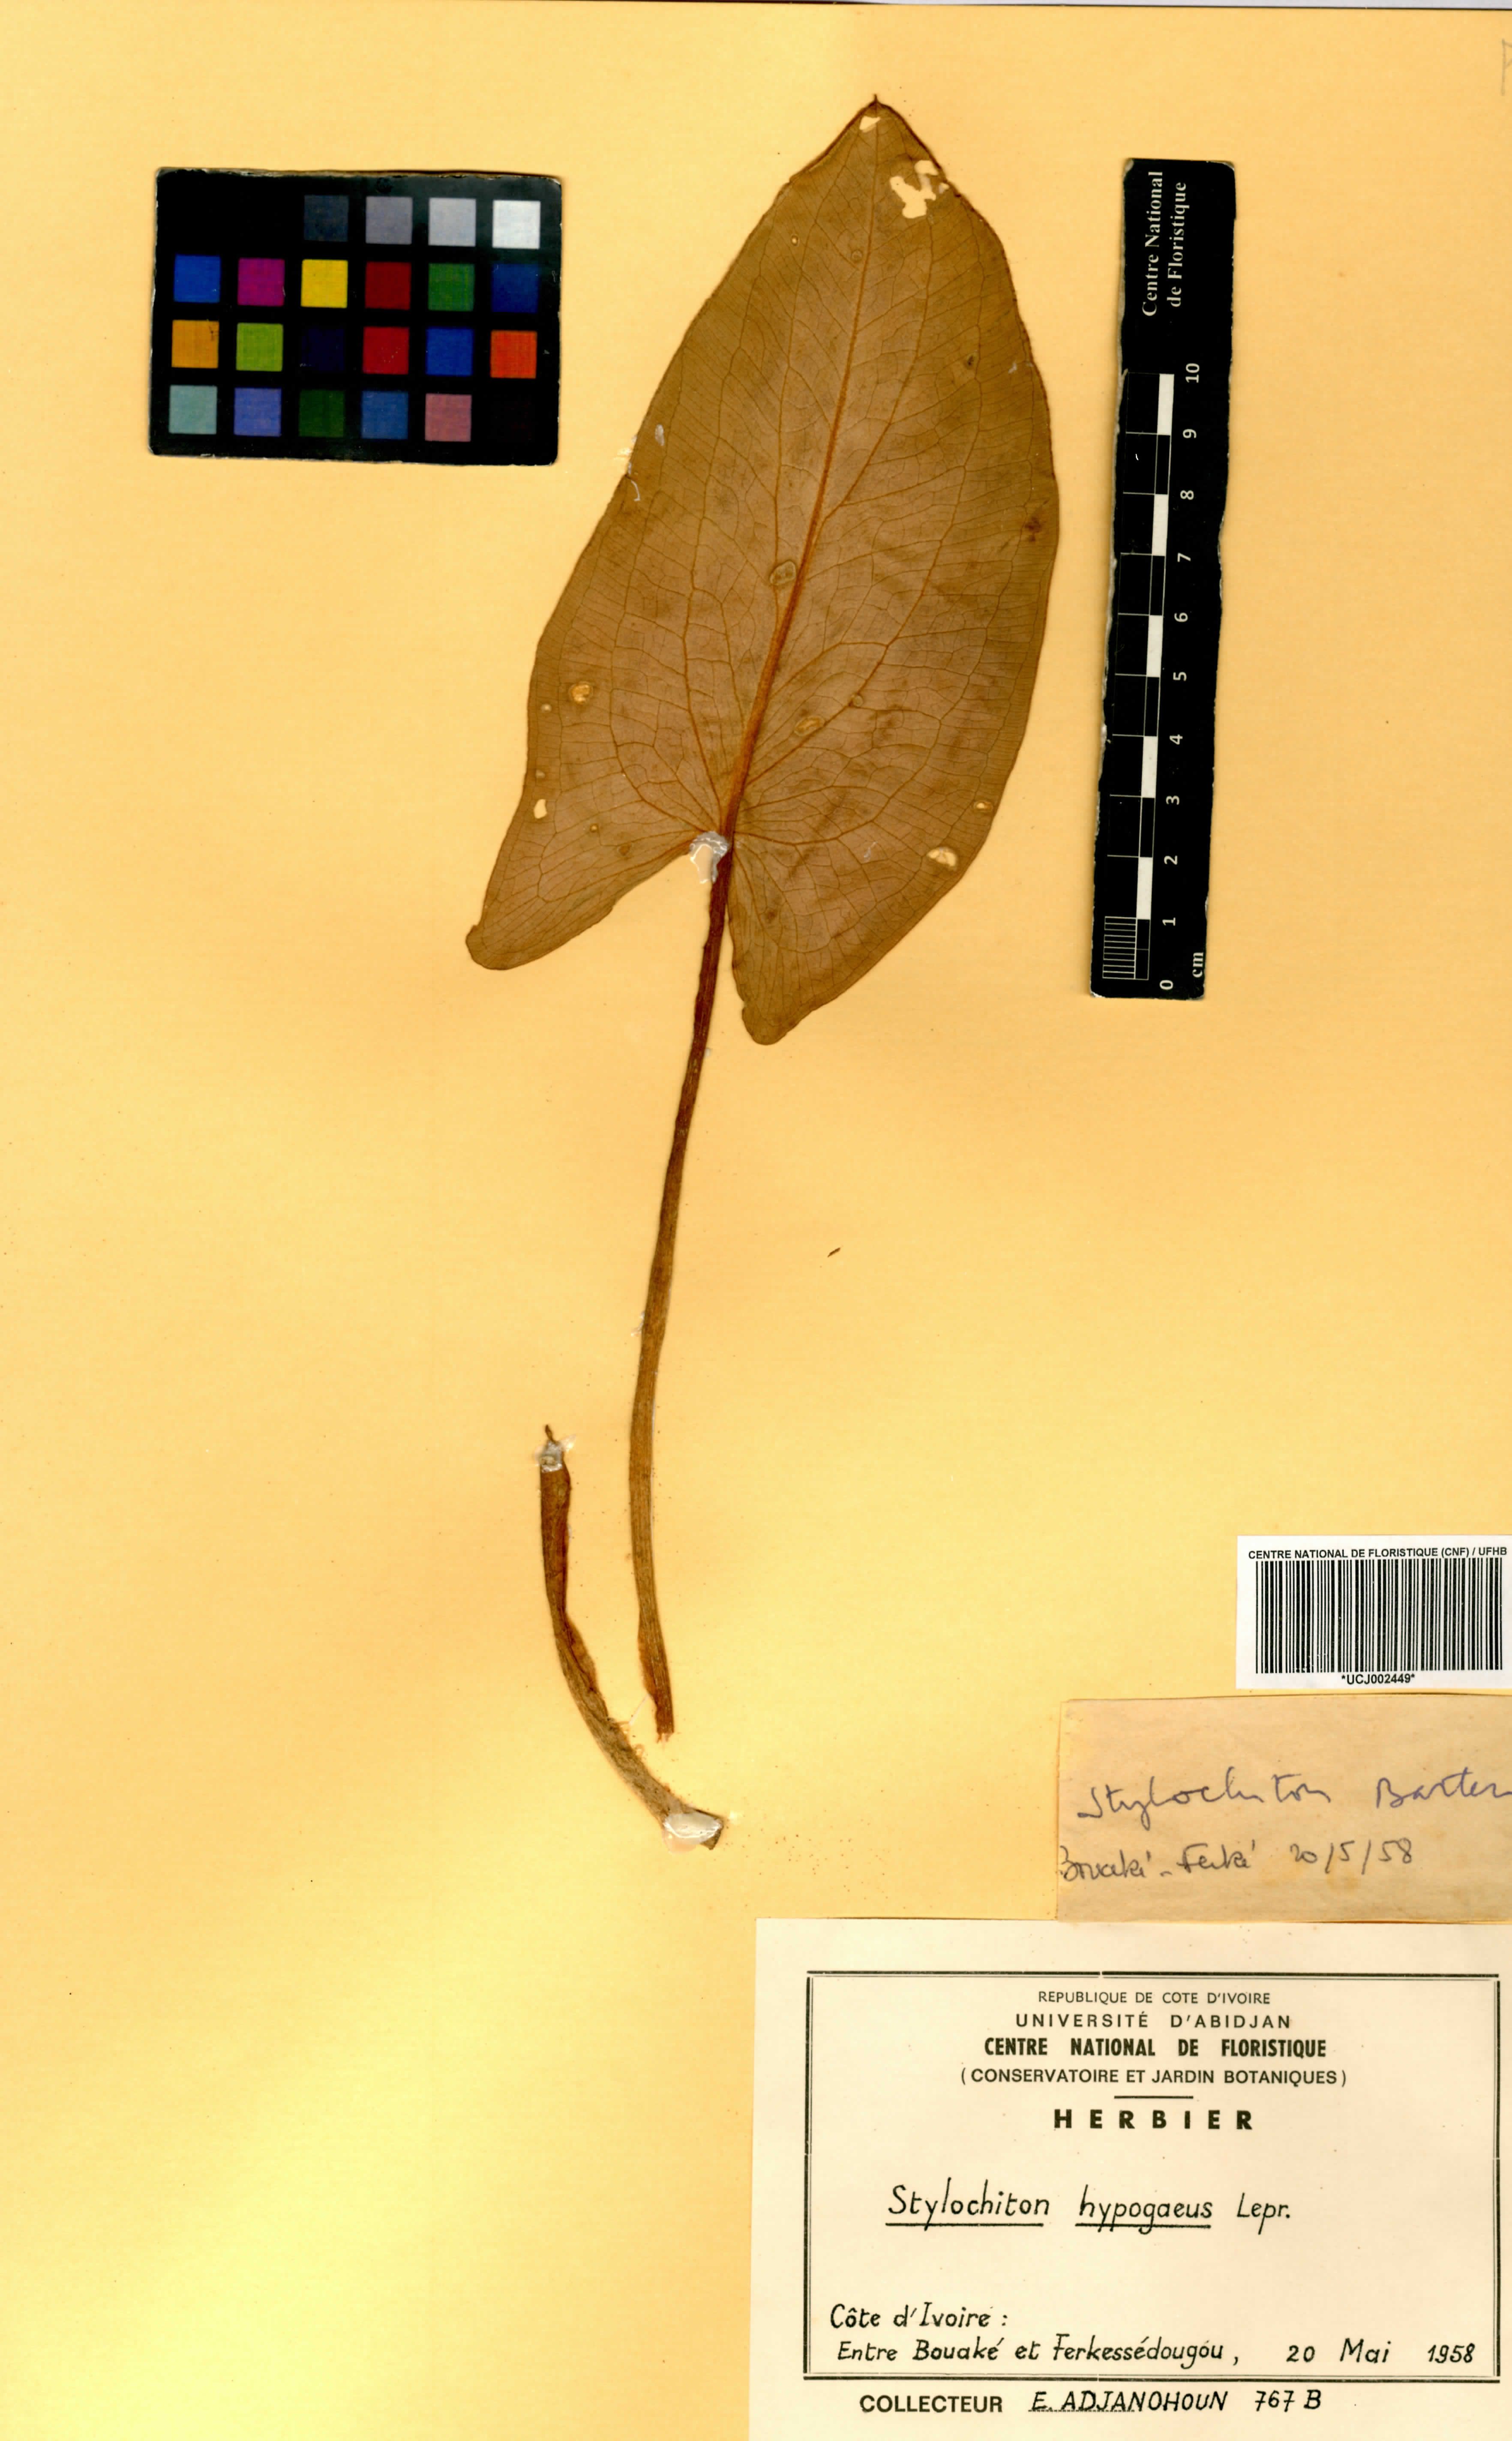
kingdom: Plantae
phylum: Tracheophyta
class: Liliopsida
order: Alismatales
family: Araceae
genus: Stylochaeton
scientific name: Stylochaeton hypogaeum
